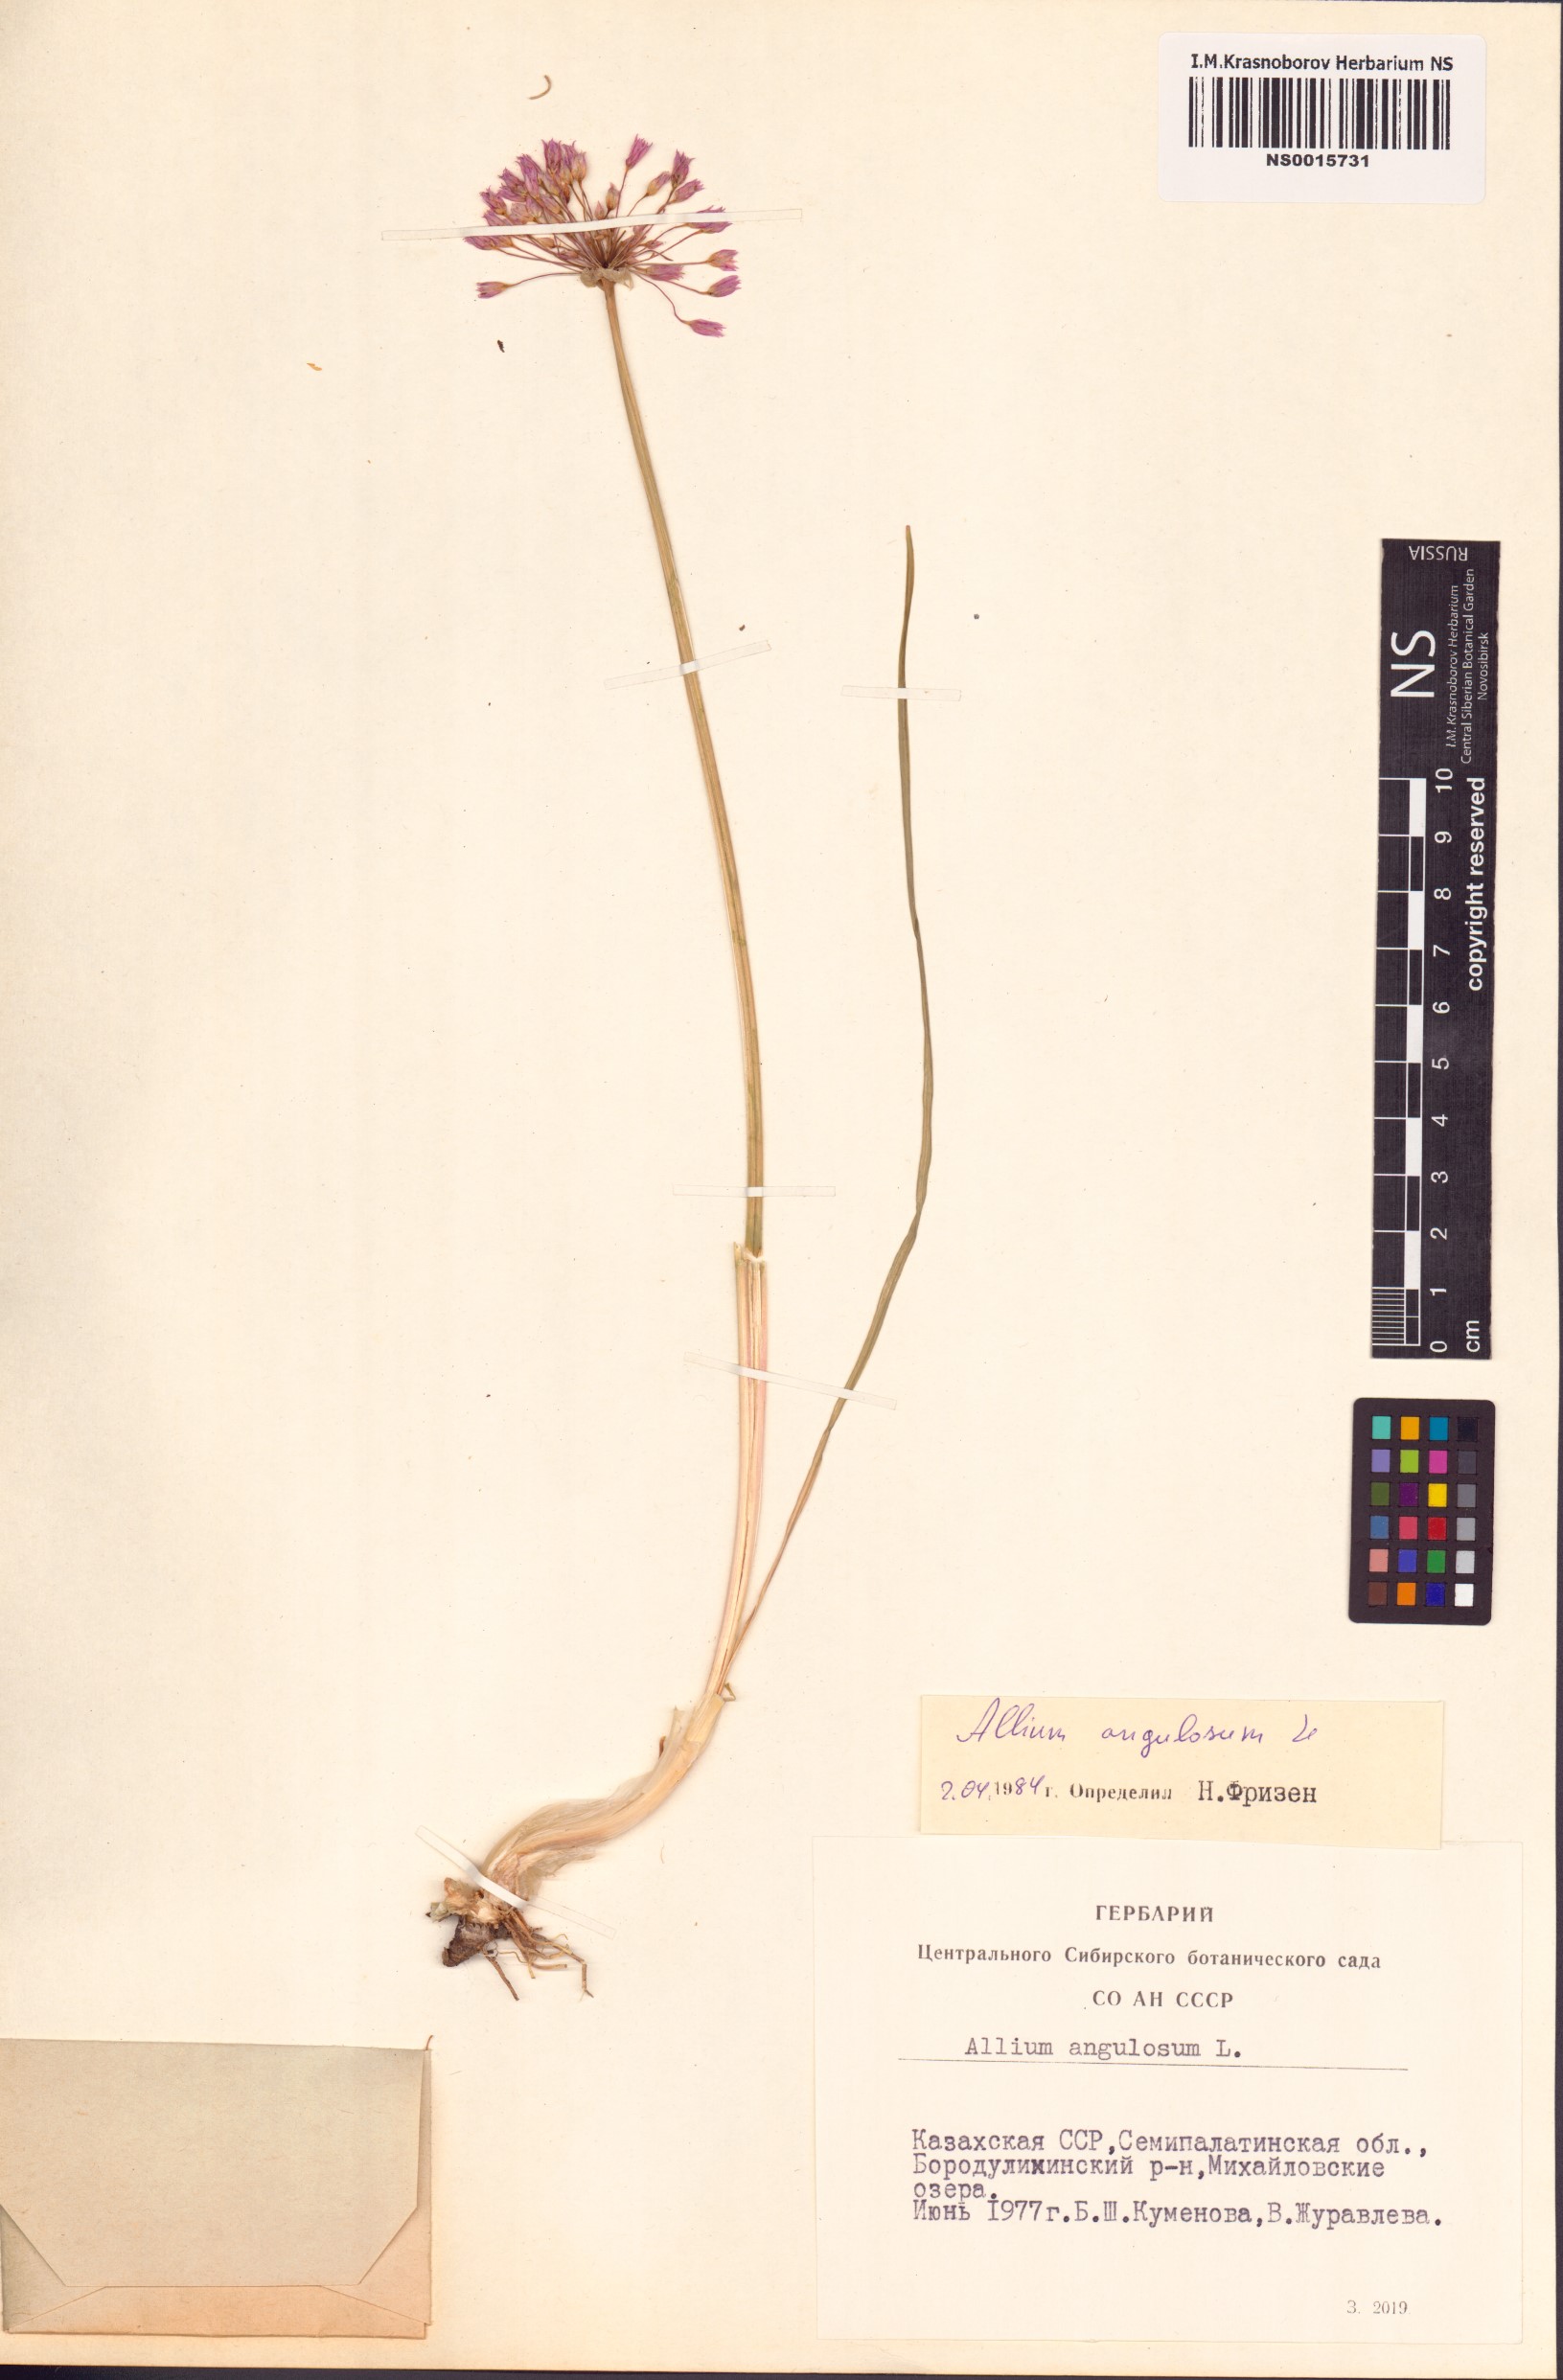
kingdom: Plantae
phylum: Tracheophyta
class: Liliopsida
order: Asparagales
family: Amaryllidaceae
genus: Allium
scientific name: Allium angulosum
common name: Mouse garlic
